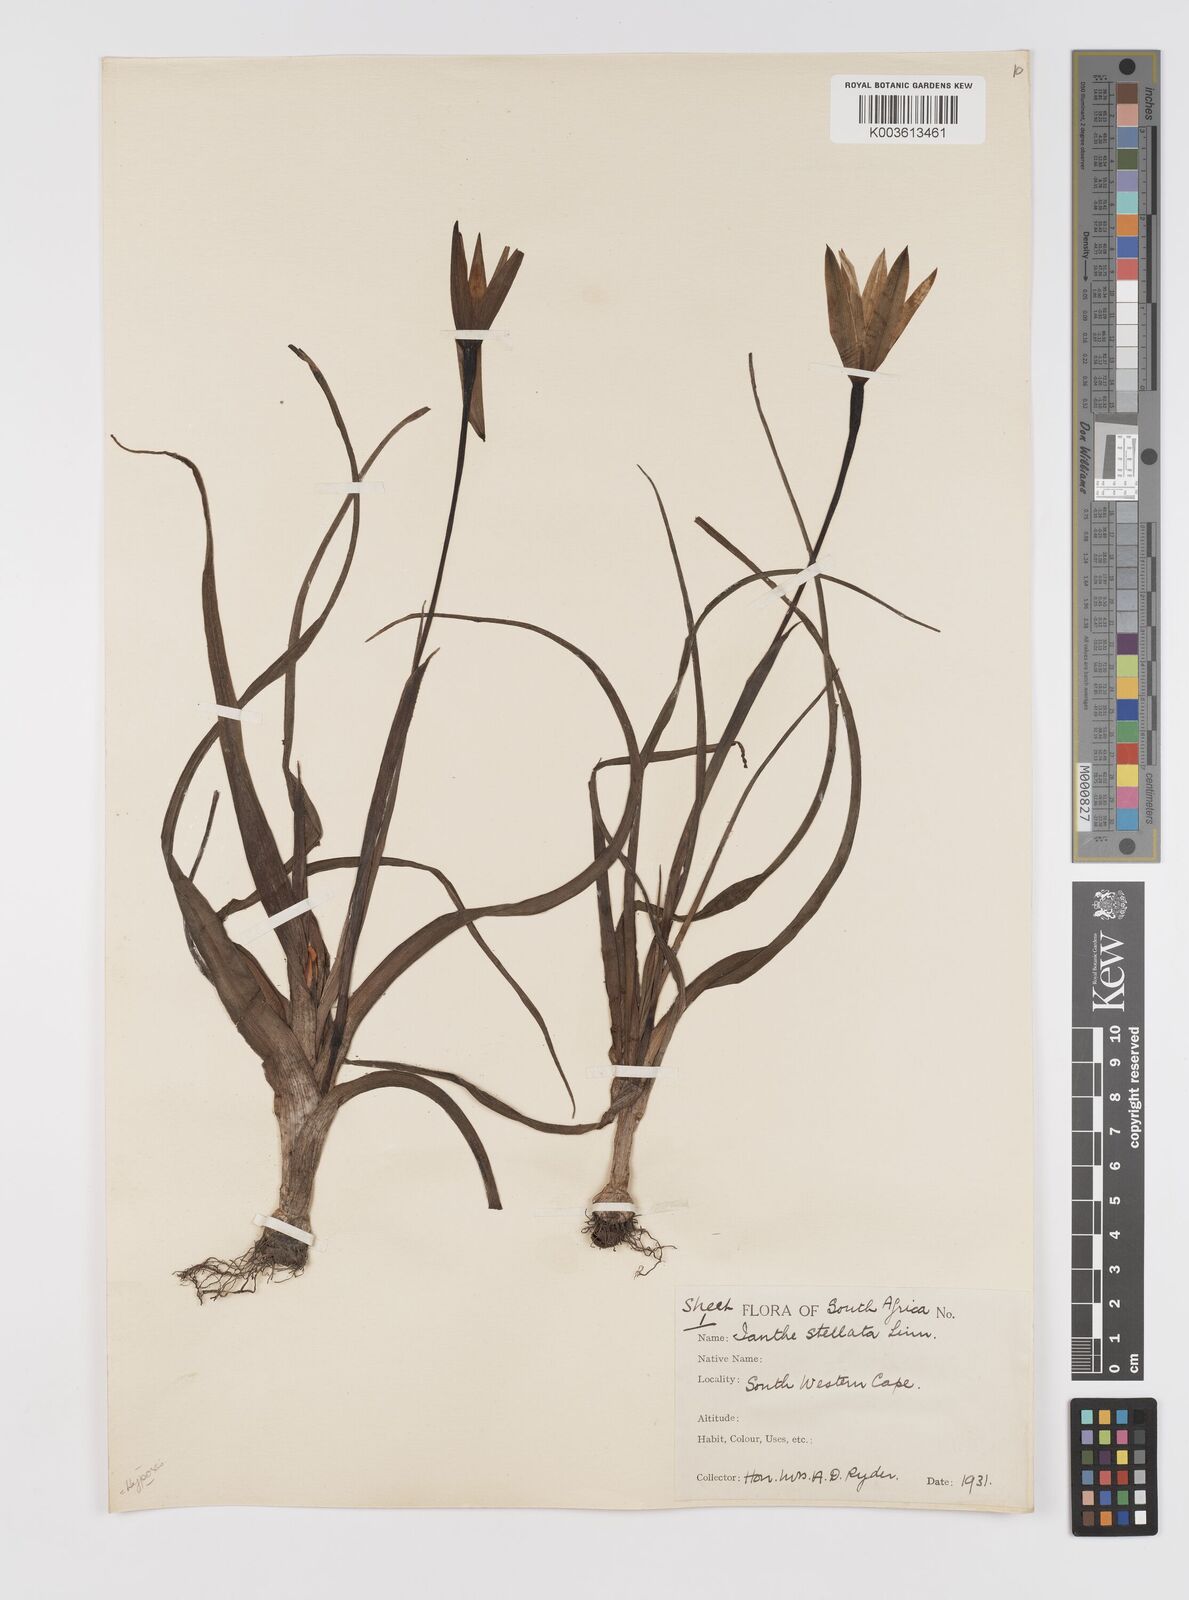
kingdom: Plantae
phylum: Tracheophyta
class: Liliopsida
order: Asparagales
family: Hypoxidaceae
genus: Pauridia
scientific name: Pauridia capensis
